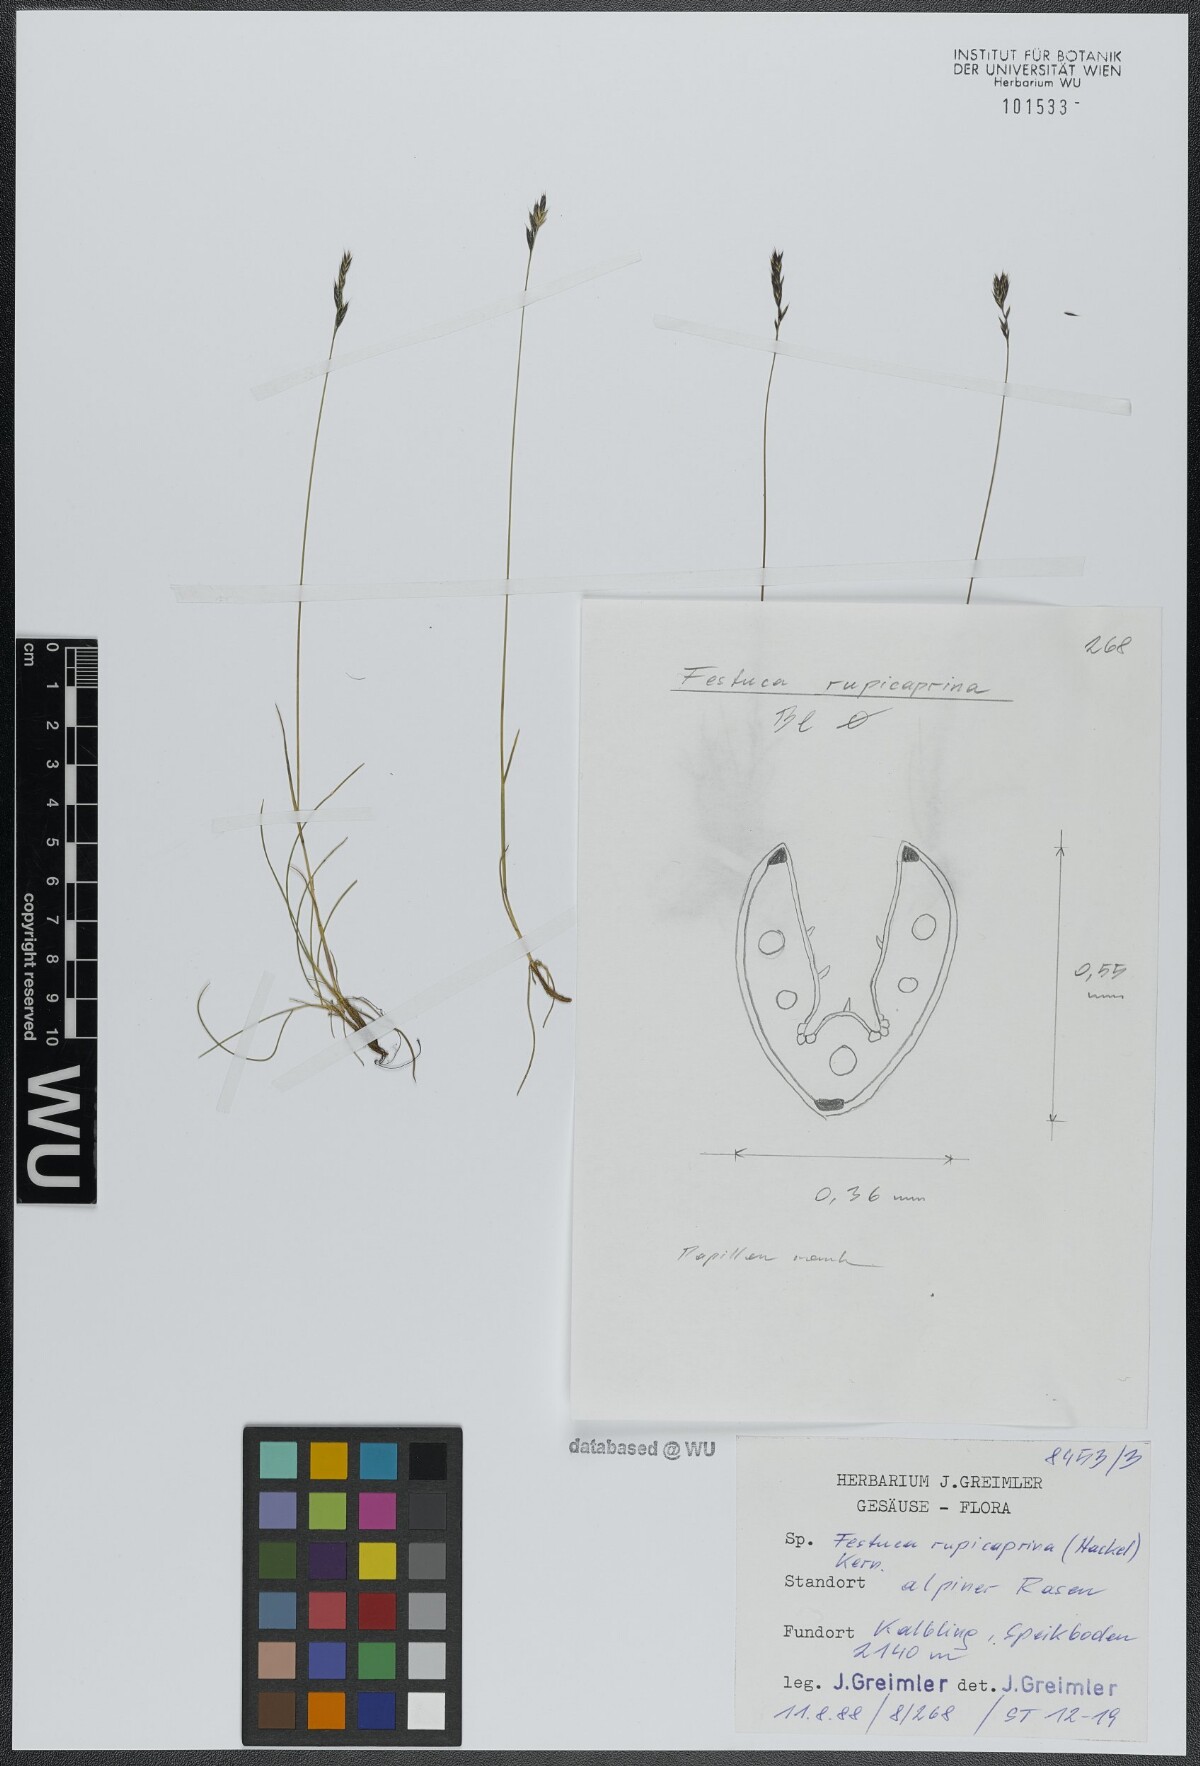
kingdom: Plantae
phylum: Tracheophyta
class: Liliopsida
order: Poales
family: Poaceae
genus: Festuca
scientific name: Festuca rupicaprina
